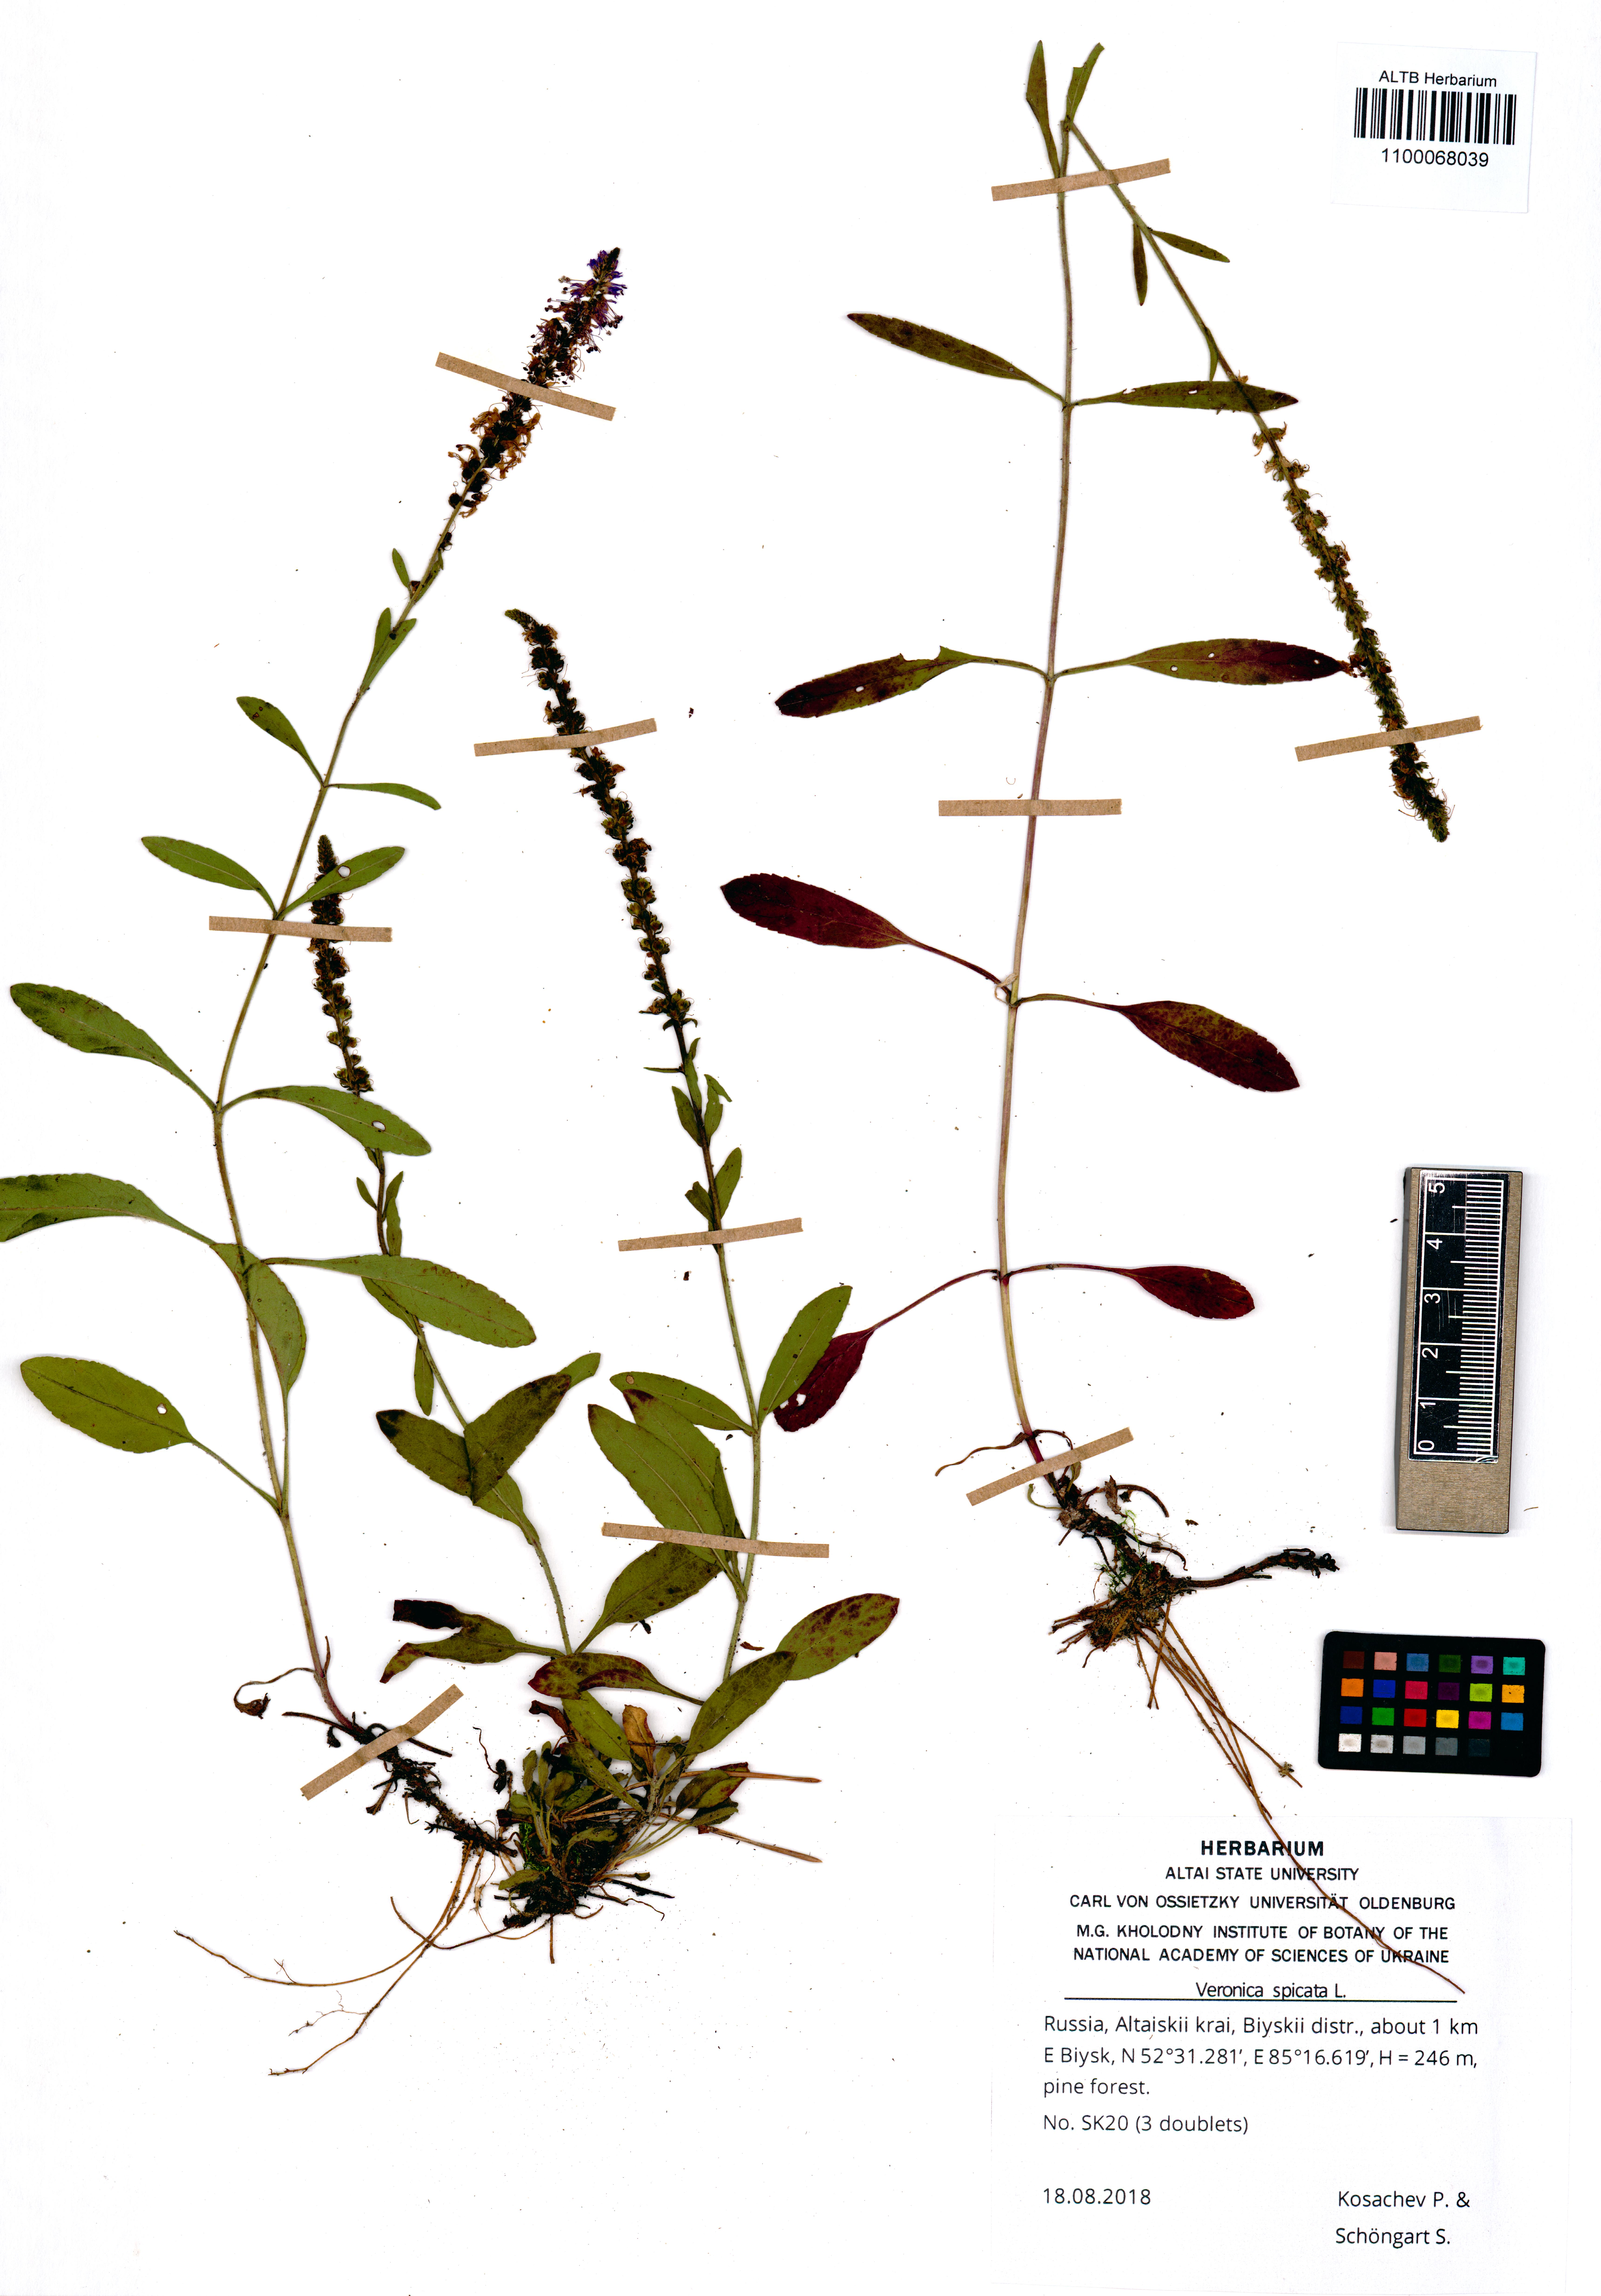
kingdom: Plantae
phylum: Tracheophyta
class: Magnoliopsida
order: Lamiales
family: Plantaginaceae
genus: Veronica
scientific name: Veronica spicata
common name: Spiked speedwell
